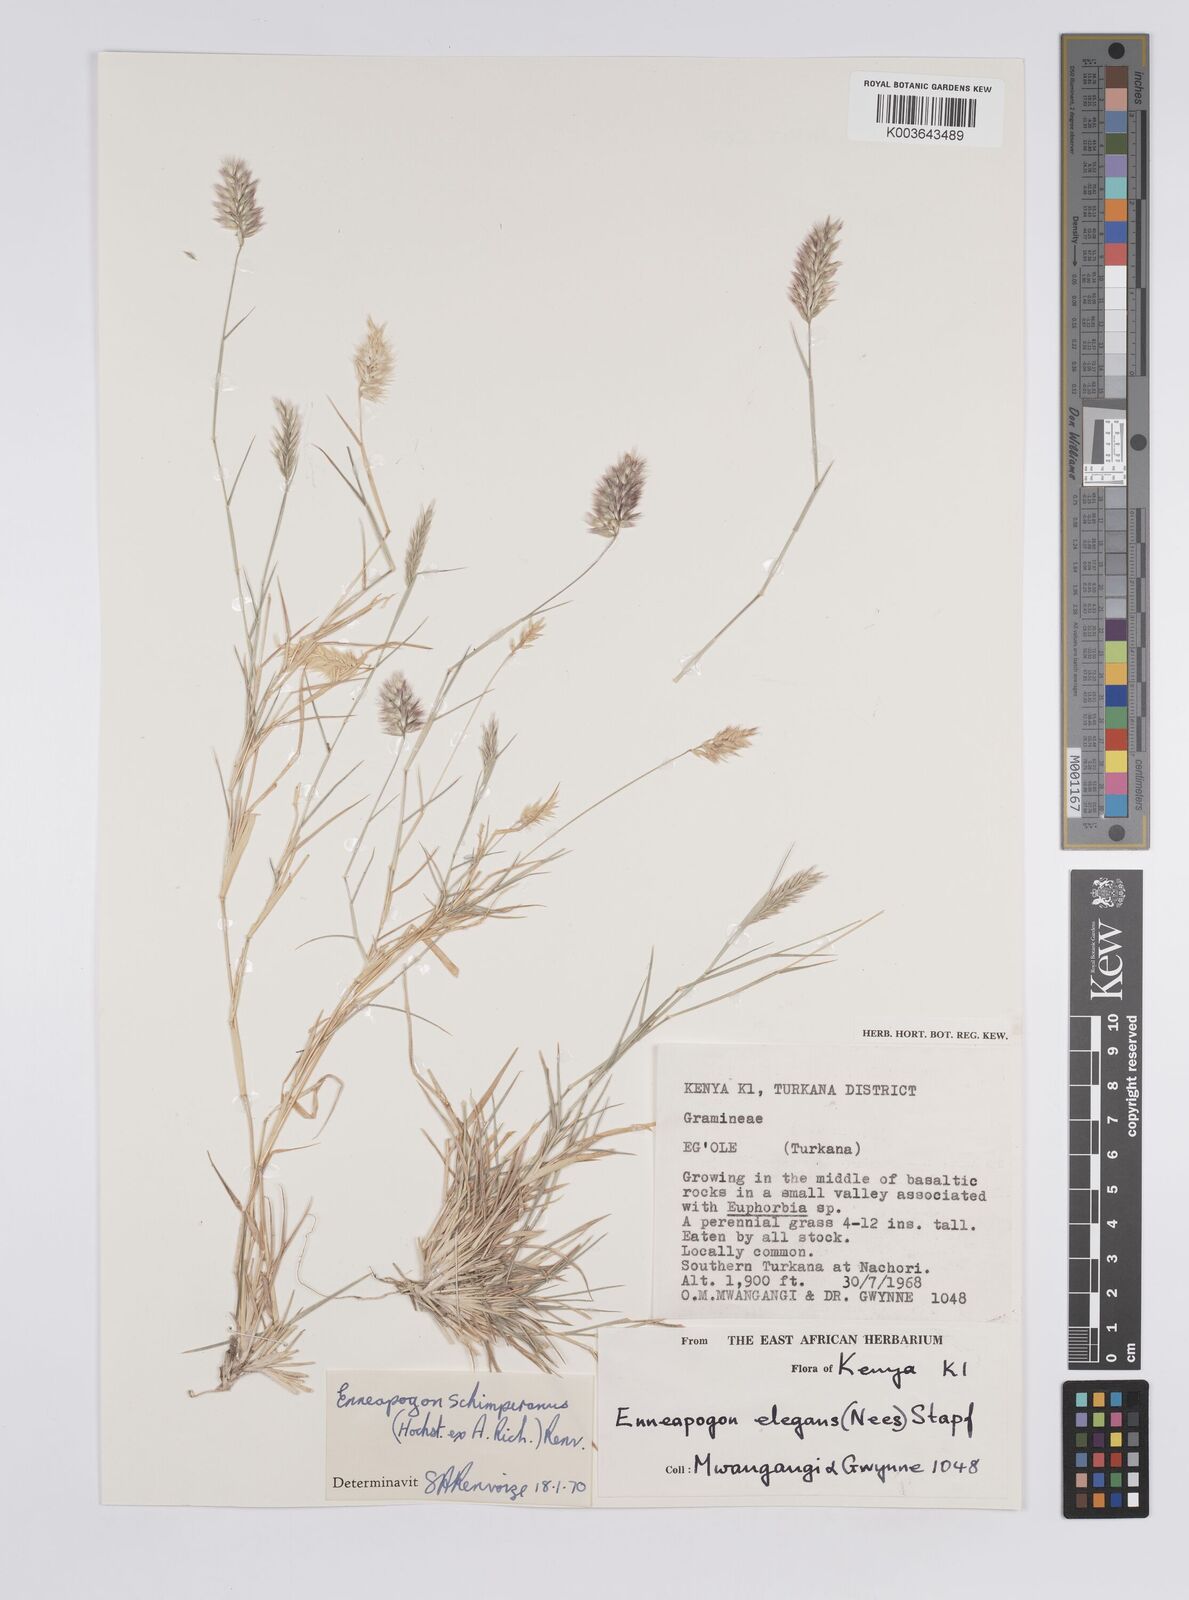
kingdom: Plantae
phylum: Tracheophyta
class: Liliopsida
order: Poales
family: Poaceae
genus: Enneapogon
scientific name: Enneapogon persicus
